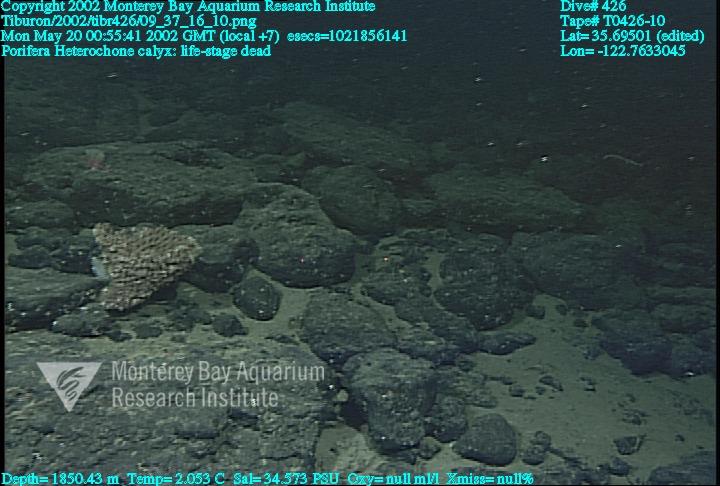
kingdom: Animalia
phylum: Porifera
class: Hexactinellida
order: Sceptrulophora
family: Aphrocallistidae
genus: Heterochone
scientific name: Heterochone calyx
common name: Fingered goblet glass sponge
